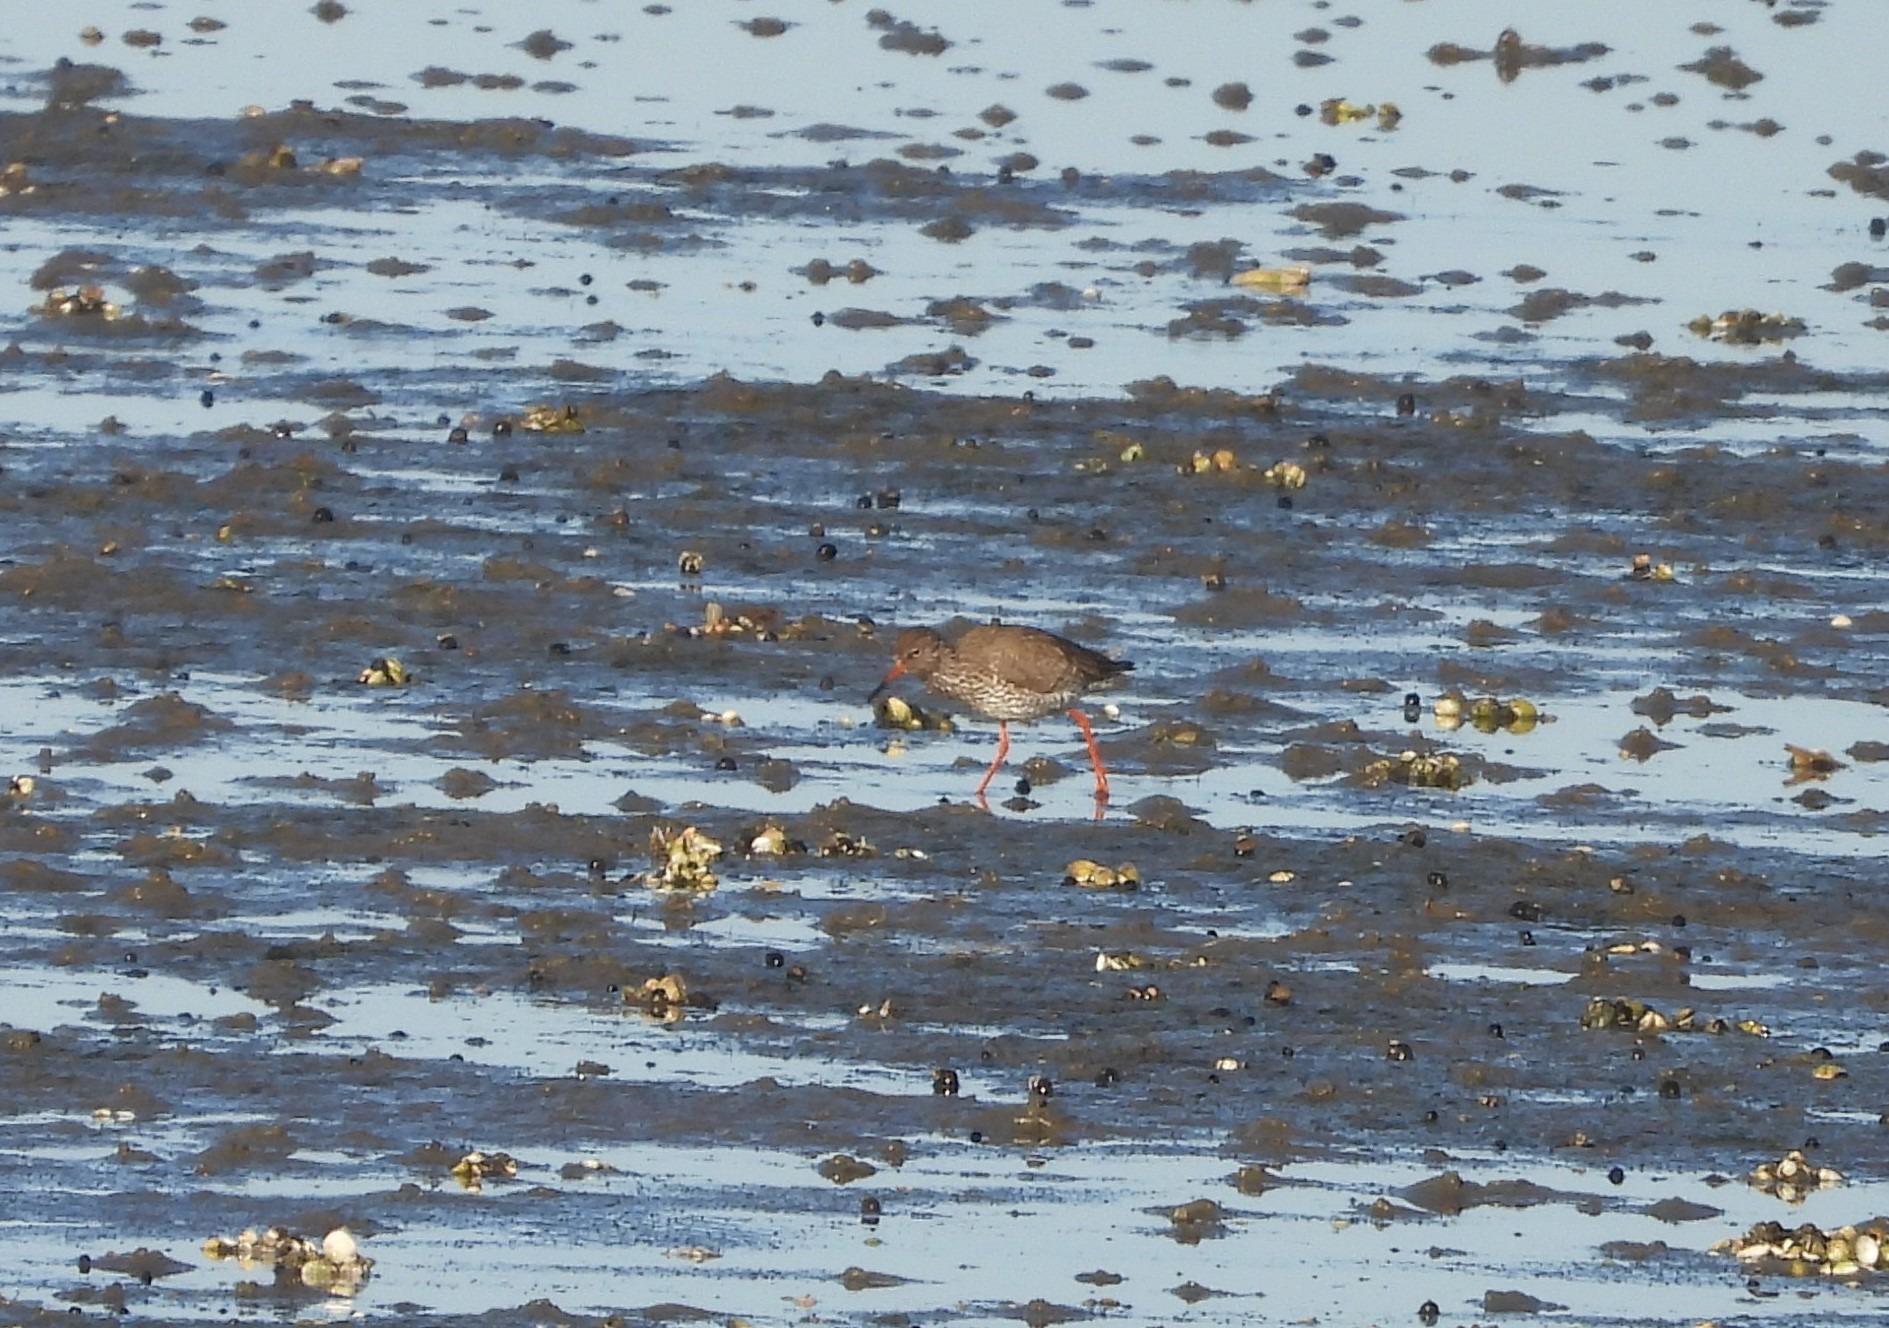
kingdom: Animalia
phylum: Chordata
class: Aves
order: Charadriiformes
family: Scolopacidae
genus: Tringa
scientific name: Tringa totanus
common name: Rødben
